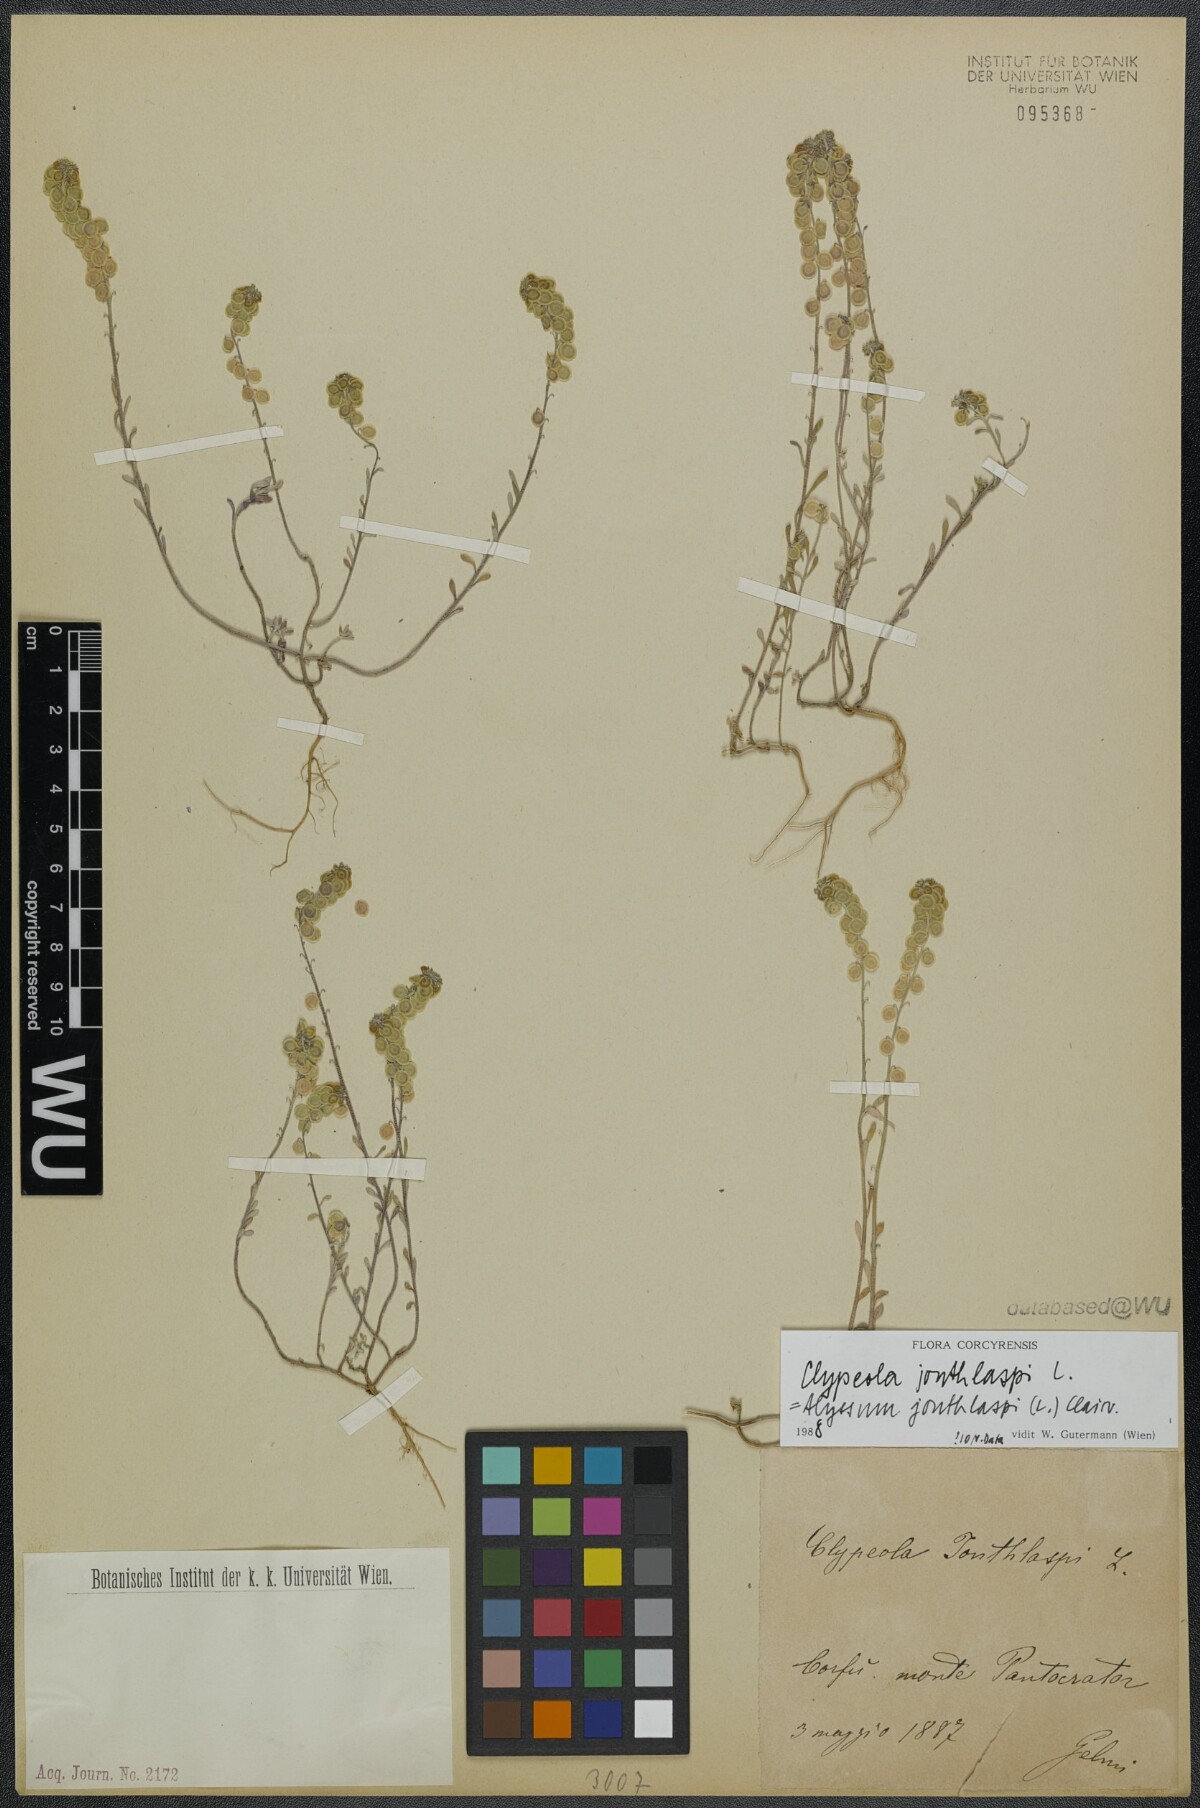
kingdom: Plantae
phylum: Tracheophyta
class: Magnoliopsida
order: Brassicales
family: Brassicaceae
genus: Clypeola
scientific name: Clypeola jonthlaspi
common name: Disk cress
